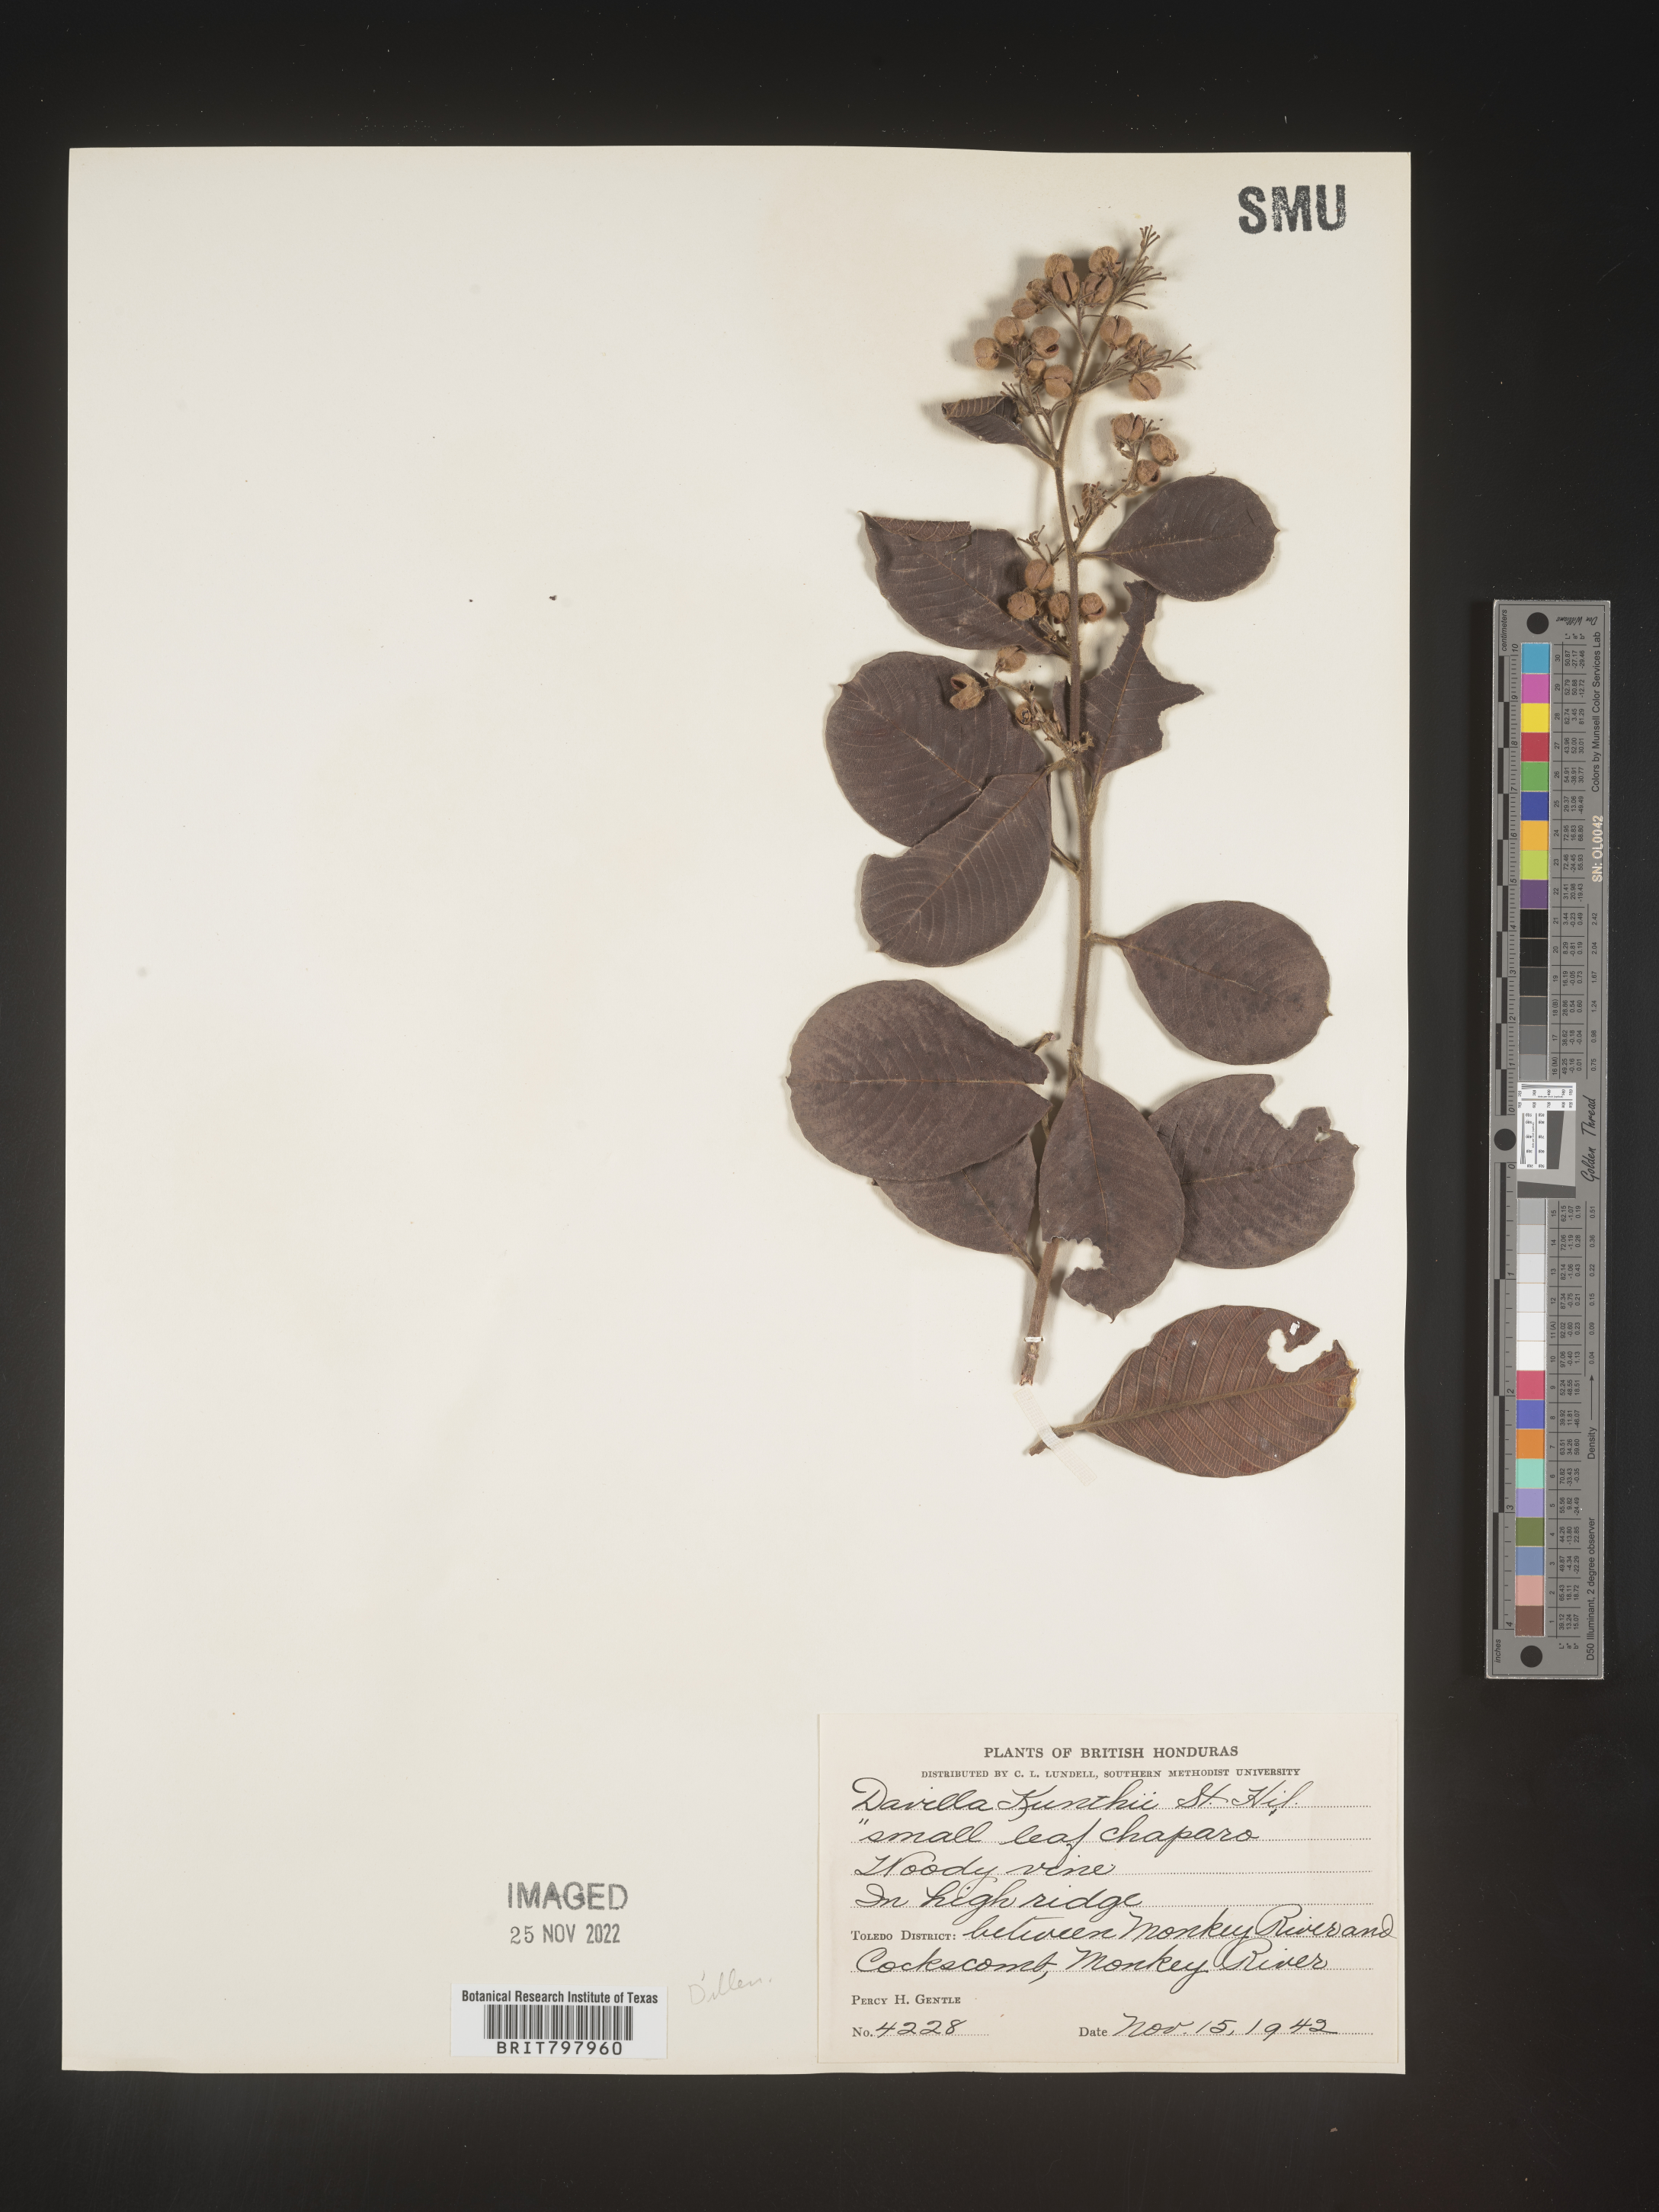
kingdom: Plantae
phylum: Tracheophyta
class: Polypodiopsida
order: Polypodiales
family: Davalliaceae
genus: Davallia
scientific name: Davallia
